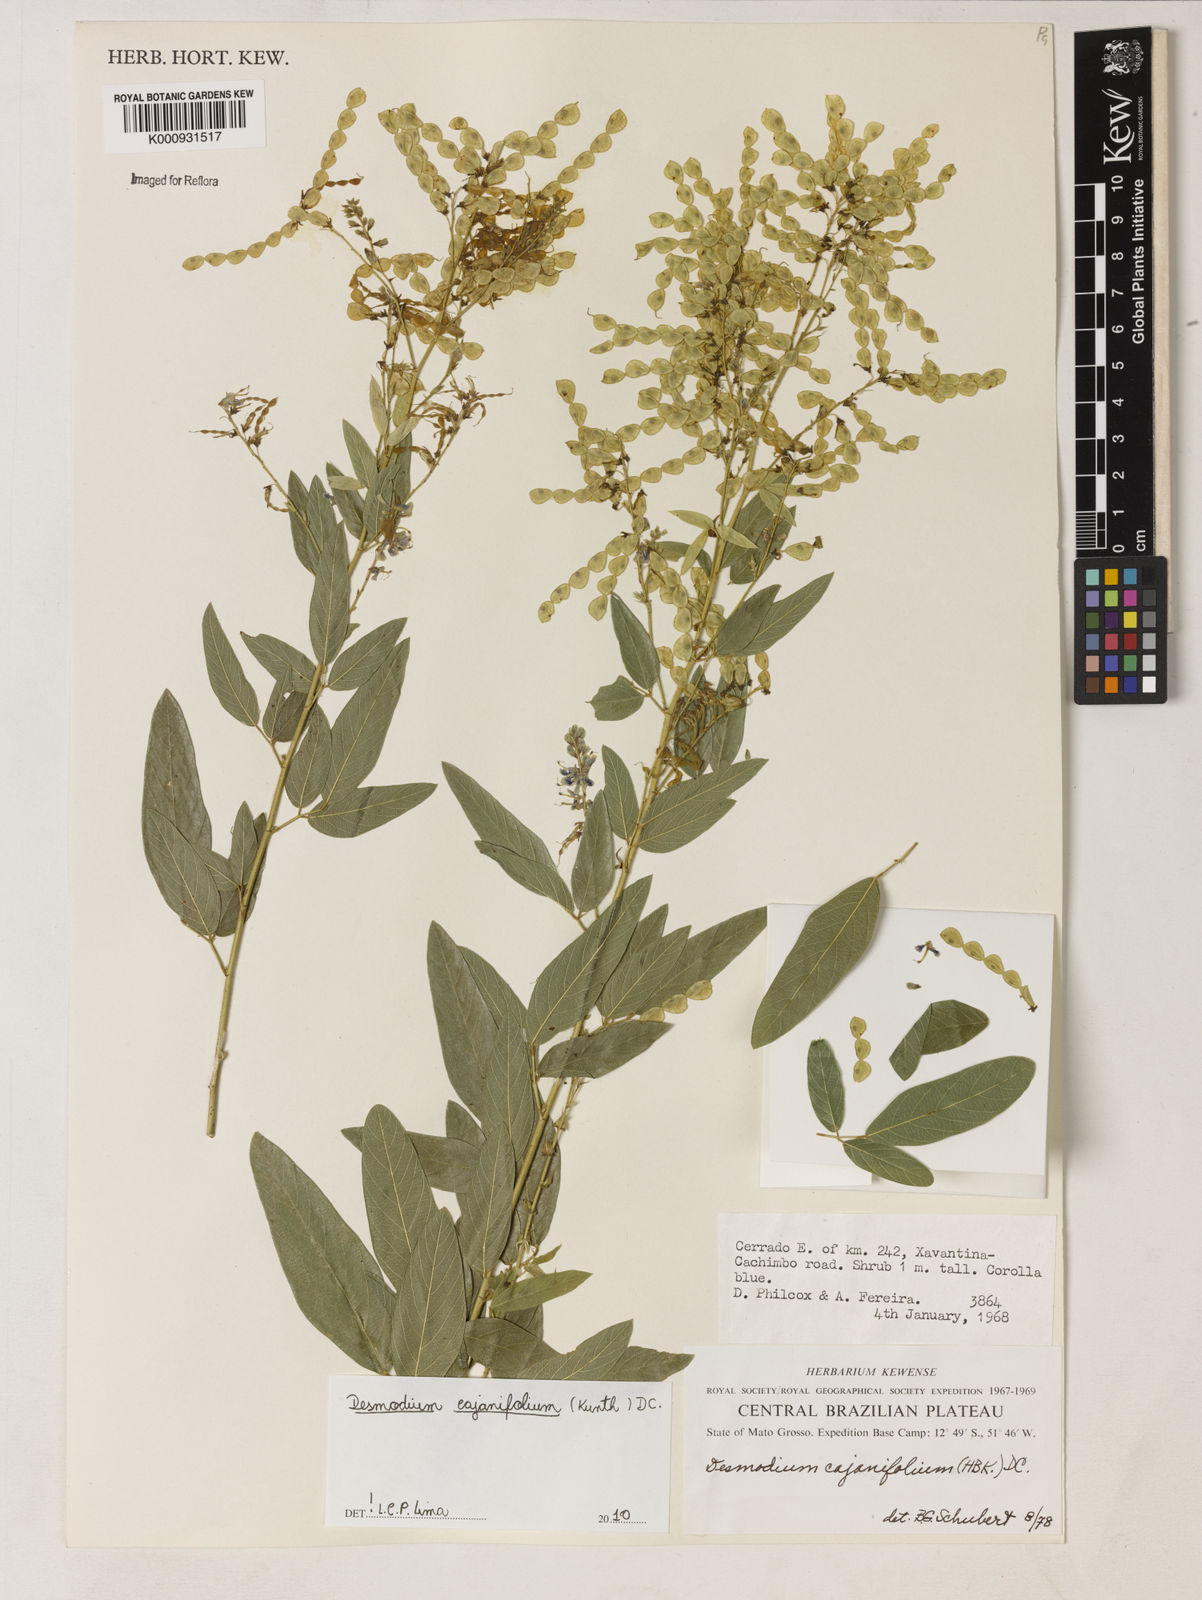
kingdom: Plantae
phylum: Tracheophyta
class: Magnoliopsida
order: Fabales
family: Fabaceae
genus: Desmodium
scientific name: Desmodium cajanifolium
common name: Tropical ticktrefoil
